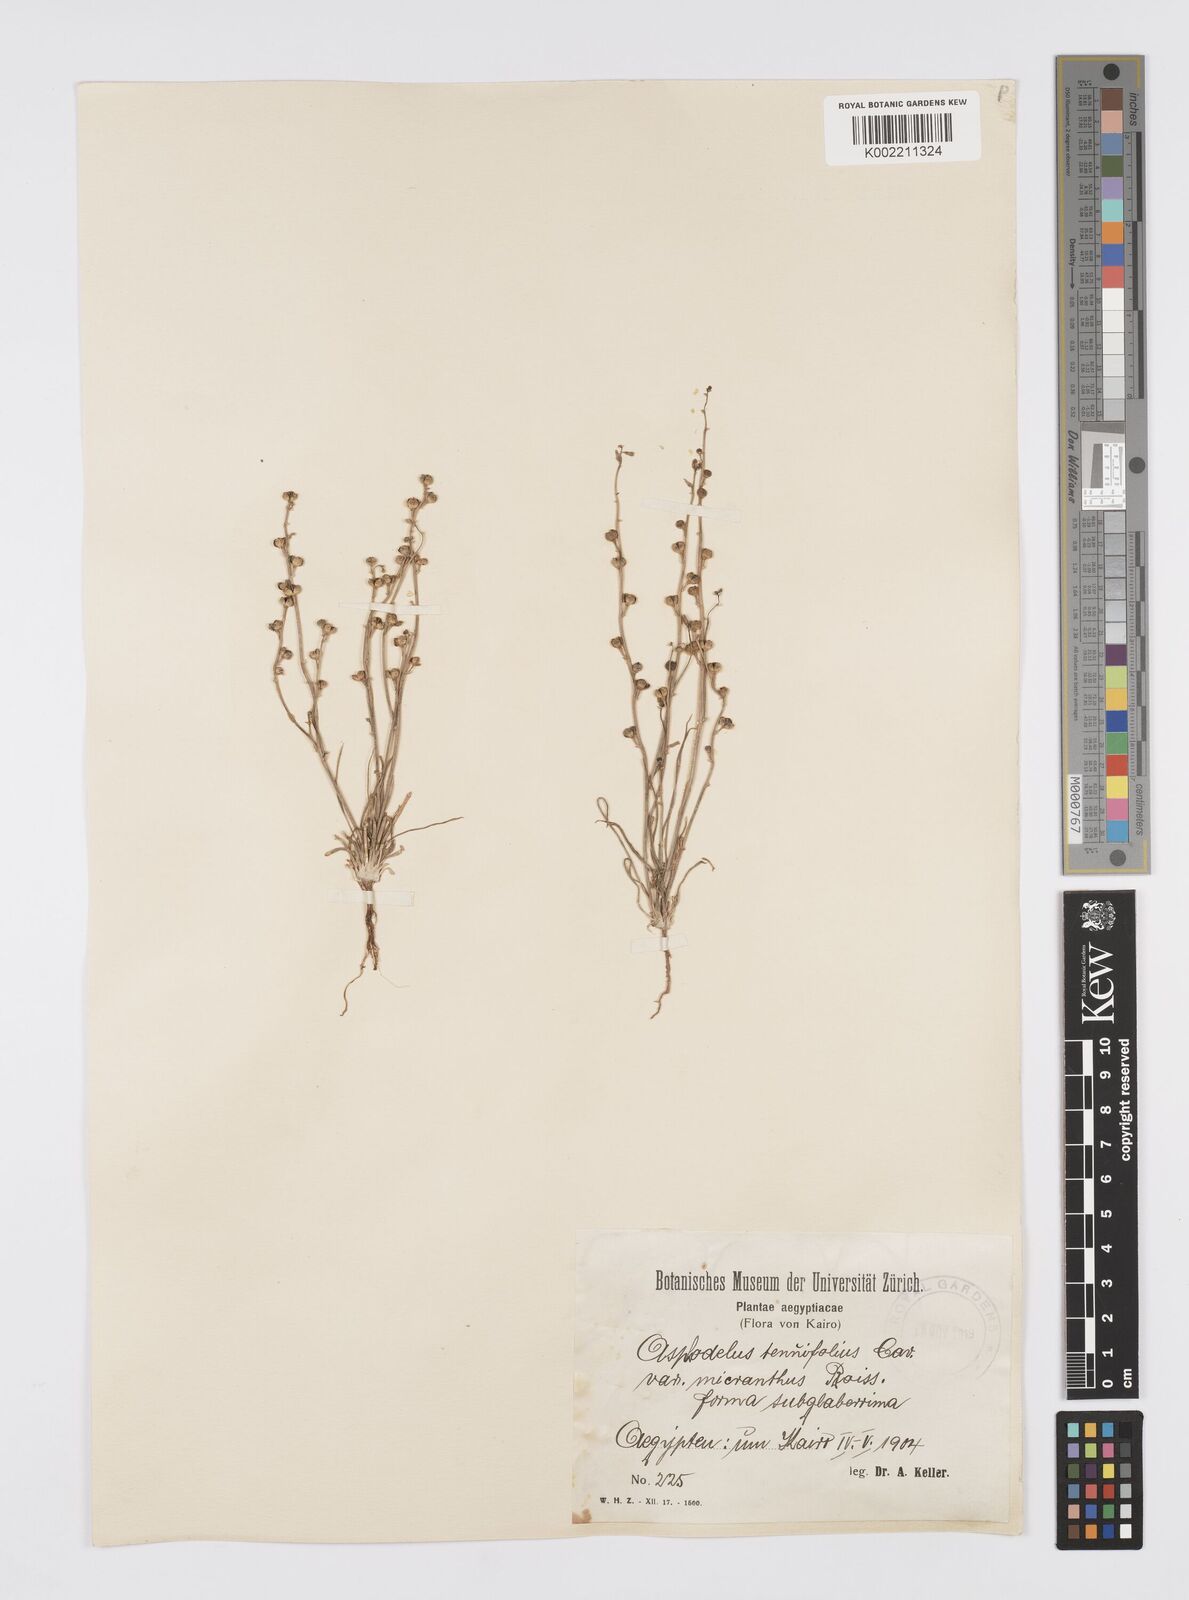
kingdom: Plantae
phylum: Tracheophyta
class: Liliopsida
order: Asparagales
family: Asphodelaceae
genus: Asphodelus
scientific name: Asphodelus tenuifolius
